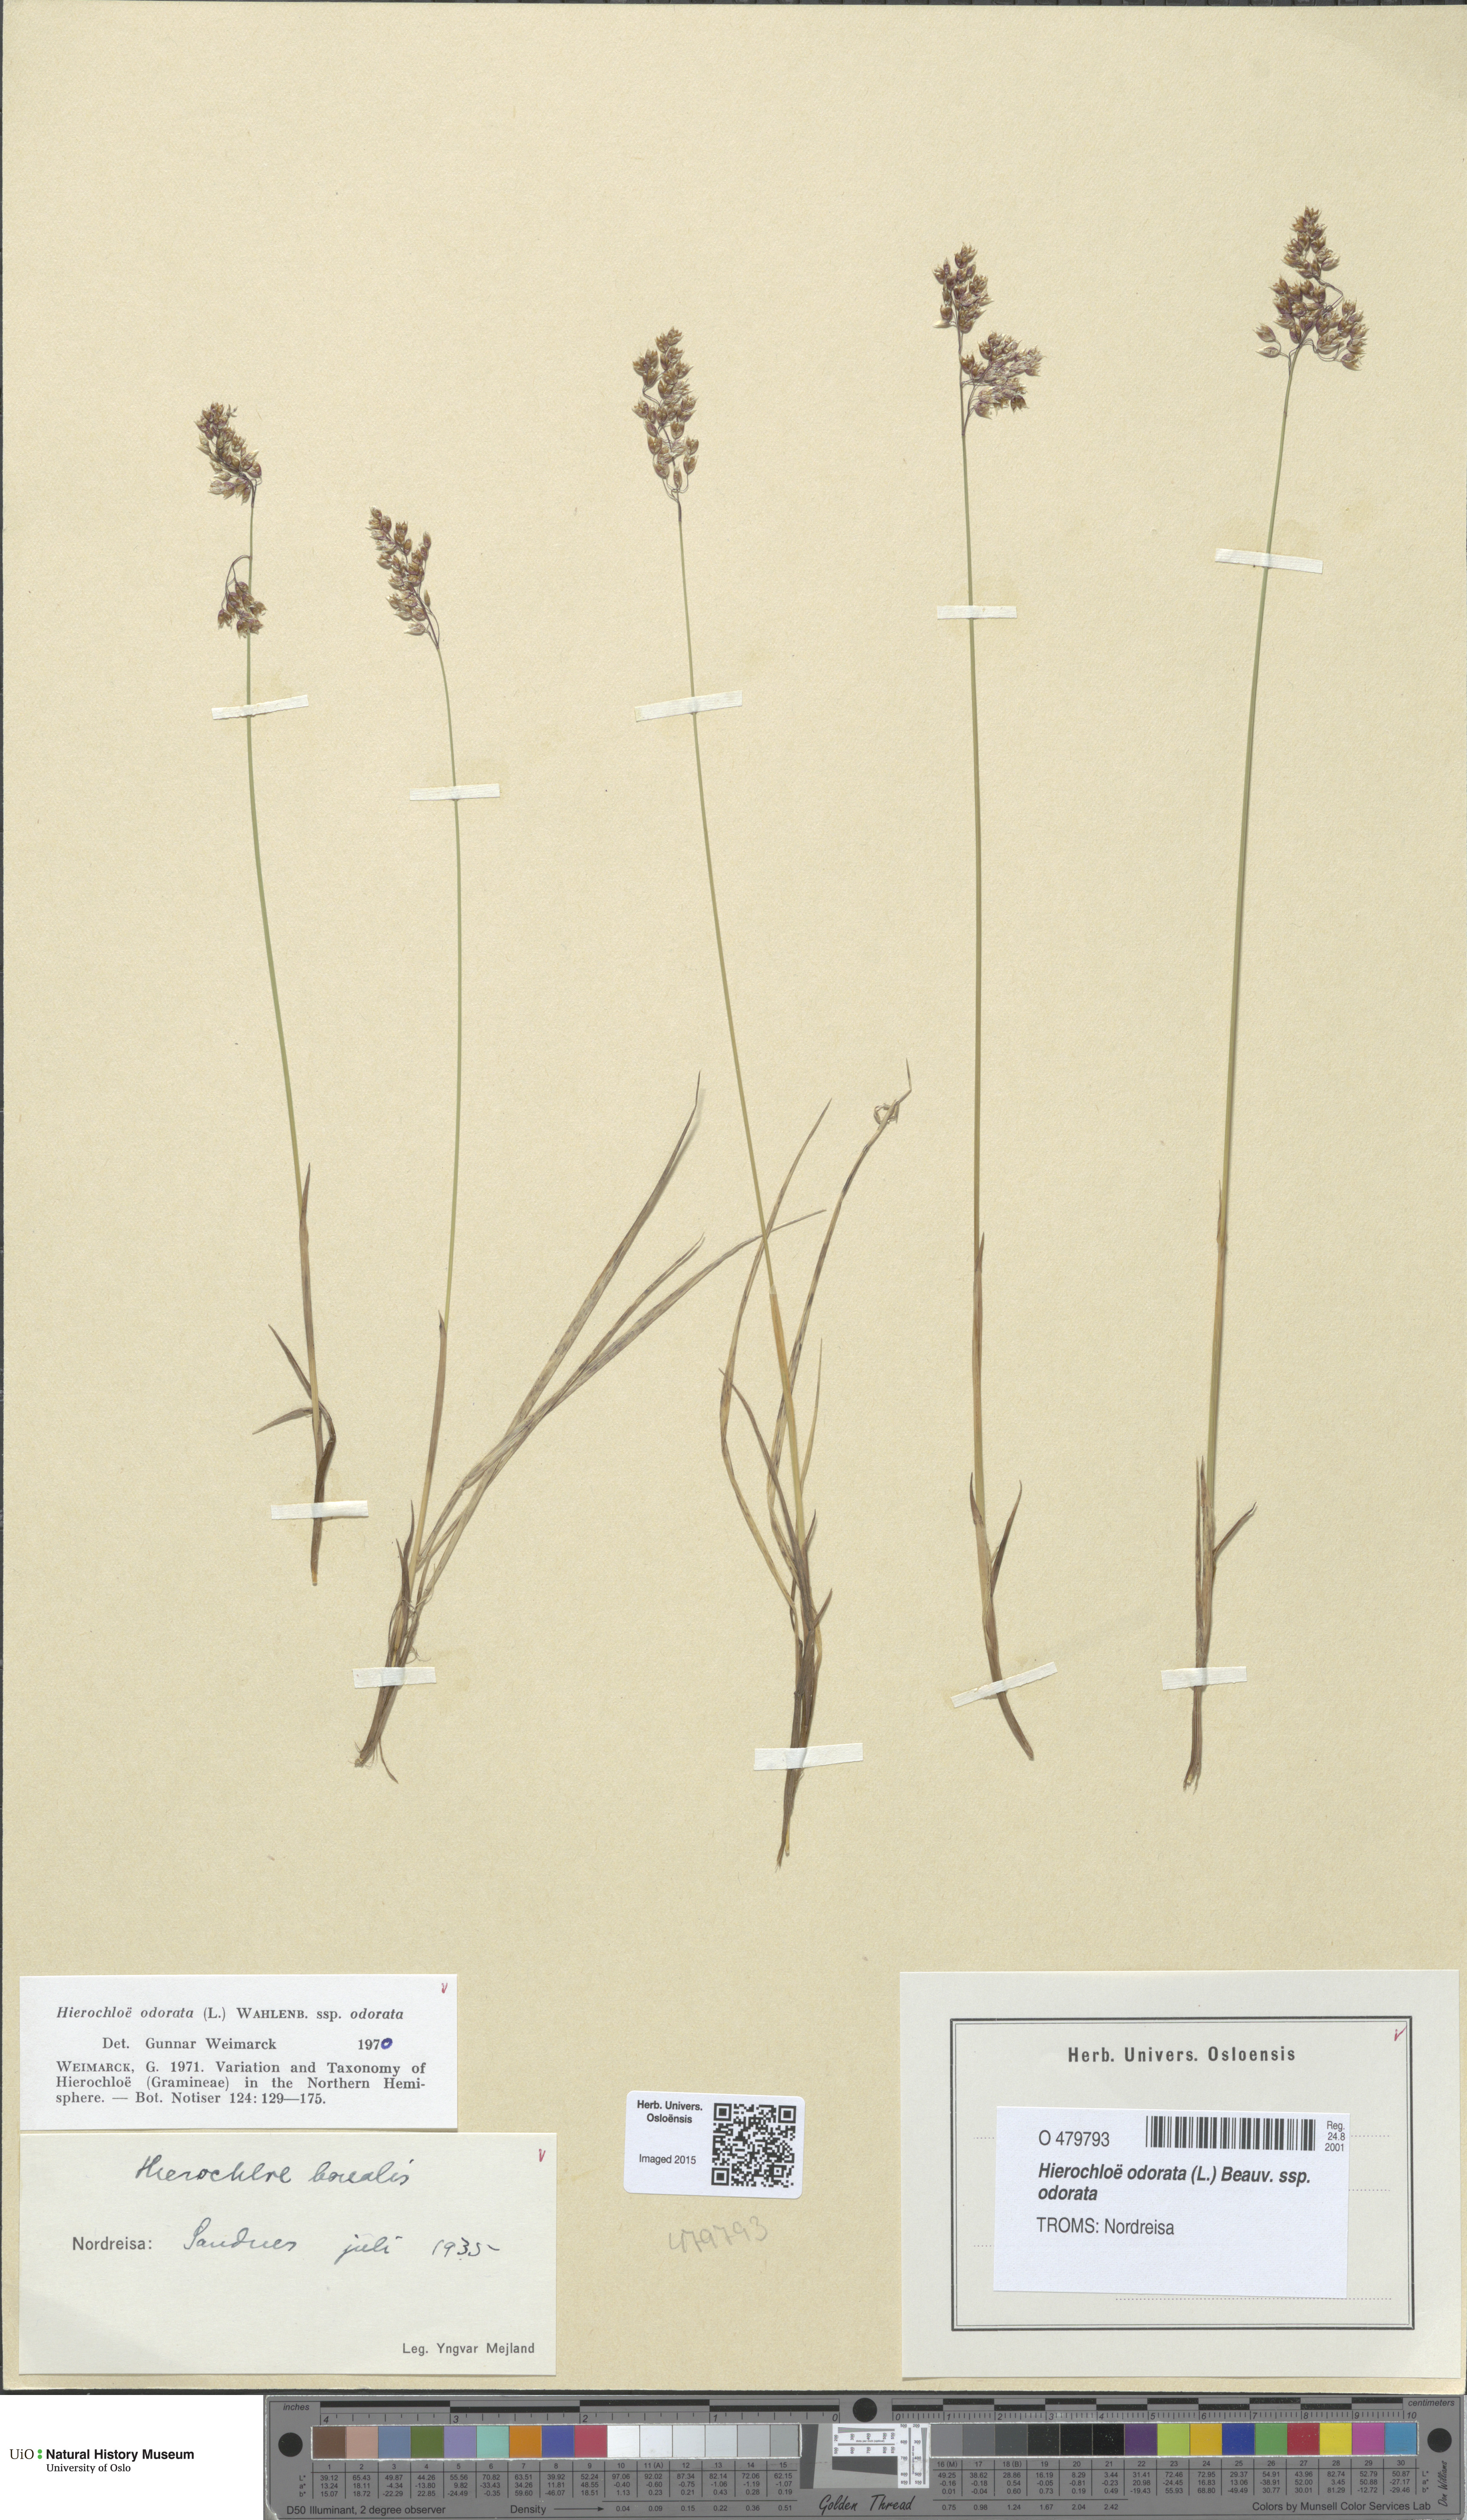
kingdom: Plantae
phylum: Tracheophyta
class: Liliopsida
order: Poales
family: Poaceae
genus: Anthoxanthum
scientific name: Anthoxanthum nitens
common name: Holy grass
